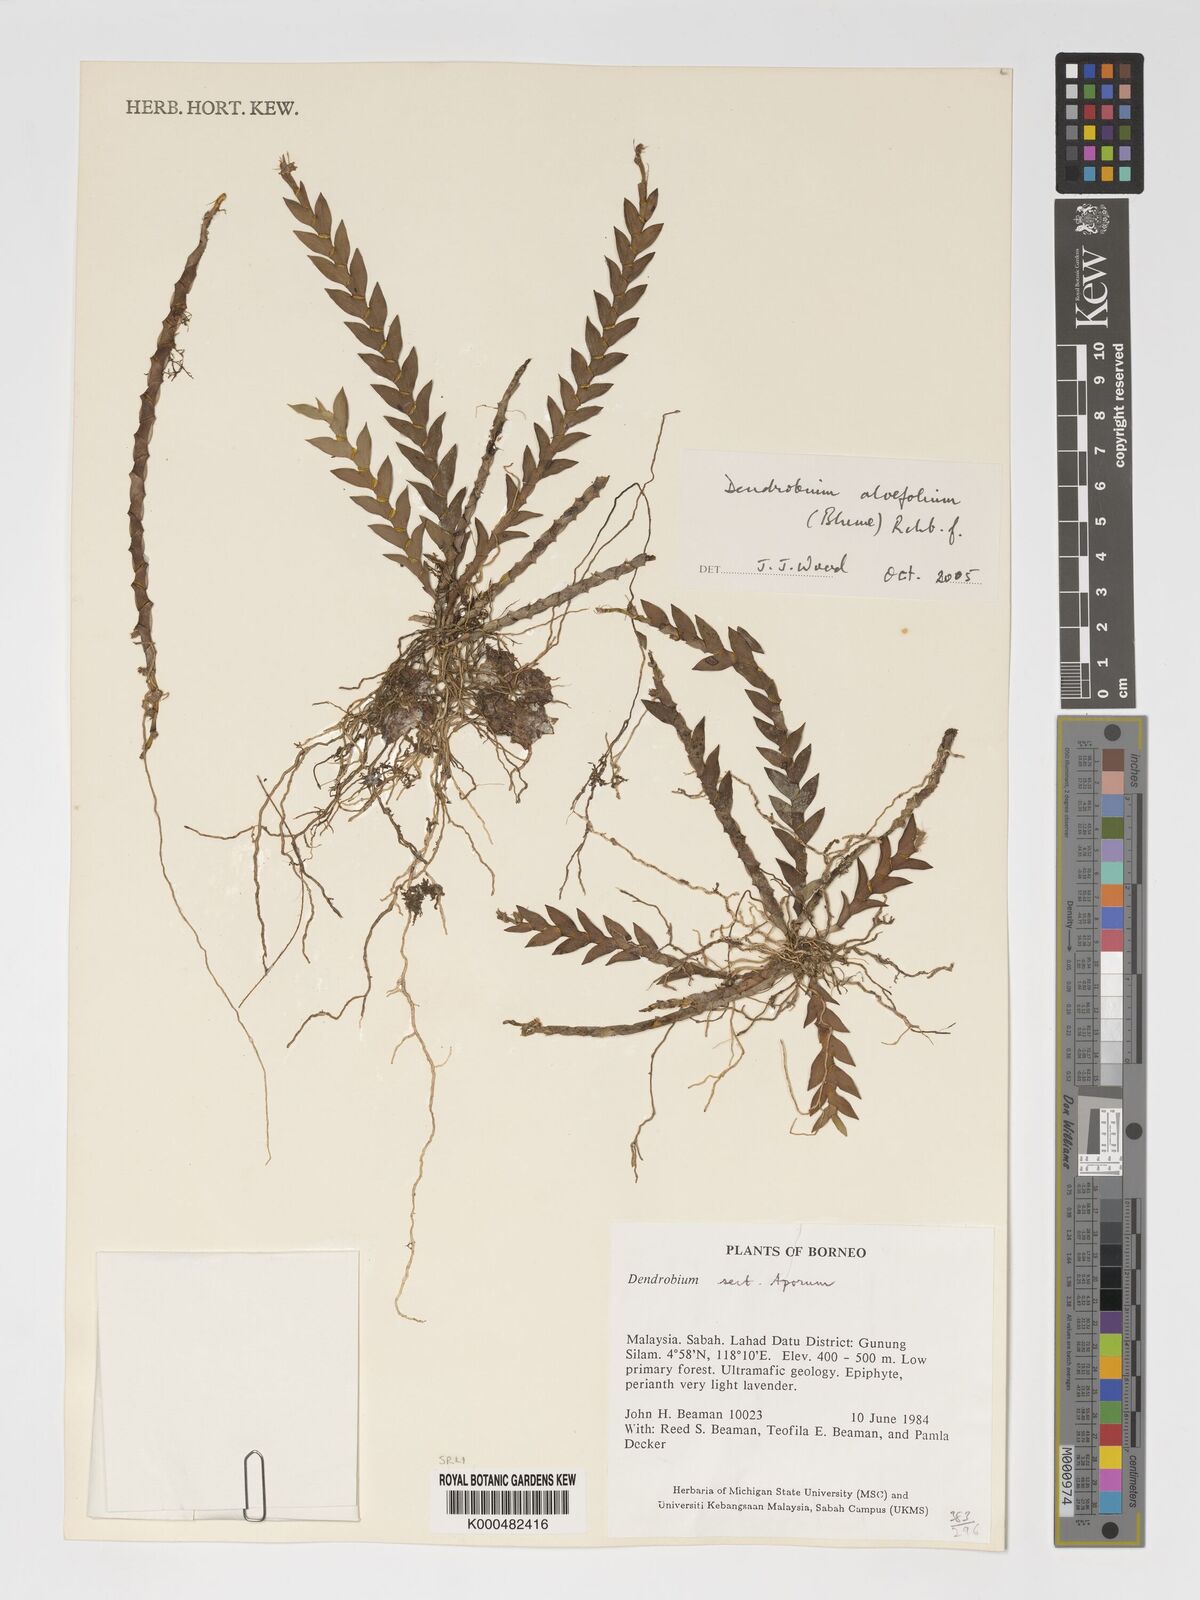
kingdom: Plantae
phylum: Tracheophyta
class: Liliopsida
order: Asparagales
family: Orchidaceae
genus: Dendrobium
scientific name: Dendrobium aloifolium
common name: Aloe-like dendrobium
